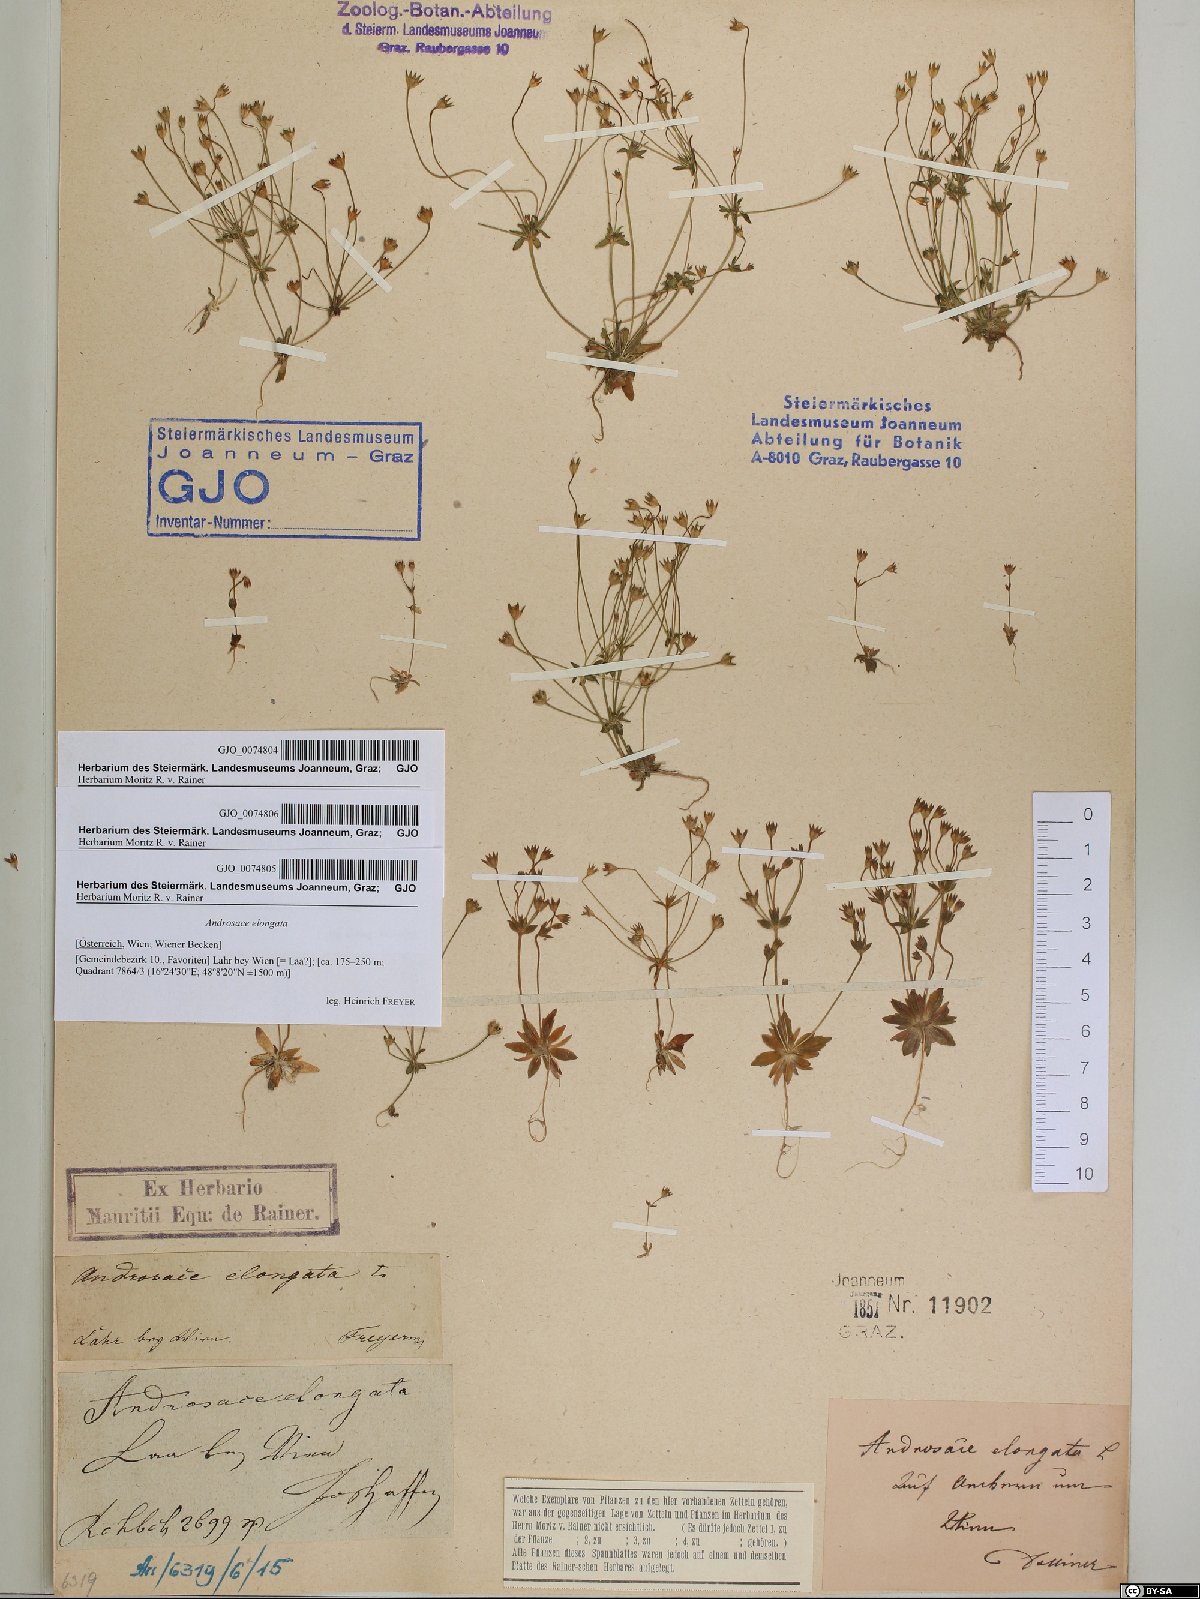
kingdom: Plantae
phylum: Tracheophyta
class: Magnoliopsida
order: Ericales
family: Primulaceae
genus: Androsace
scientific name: Androsace elongata
